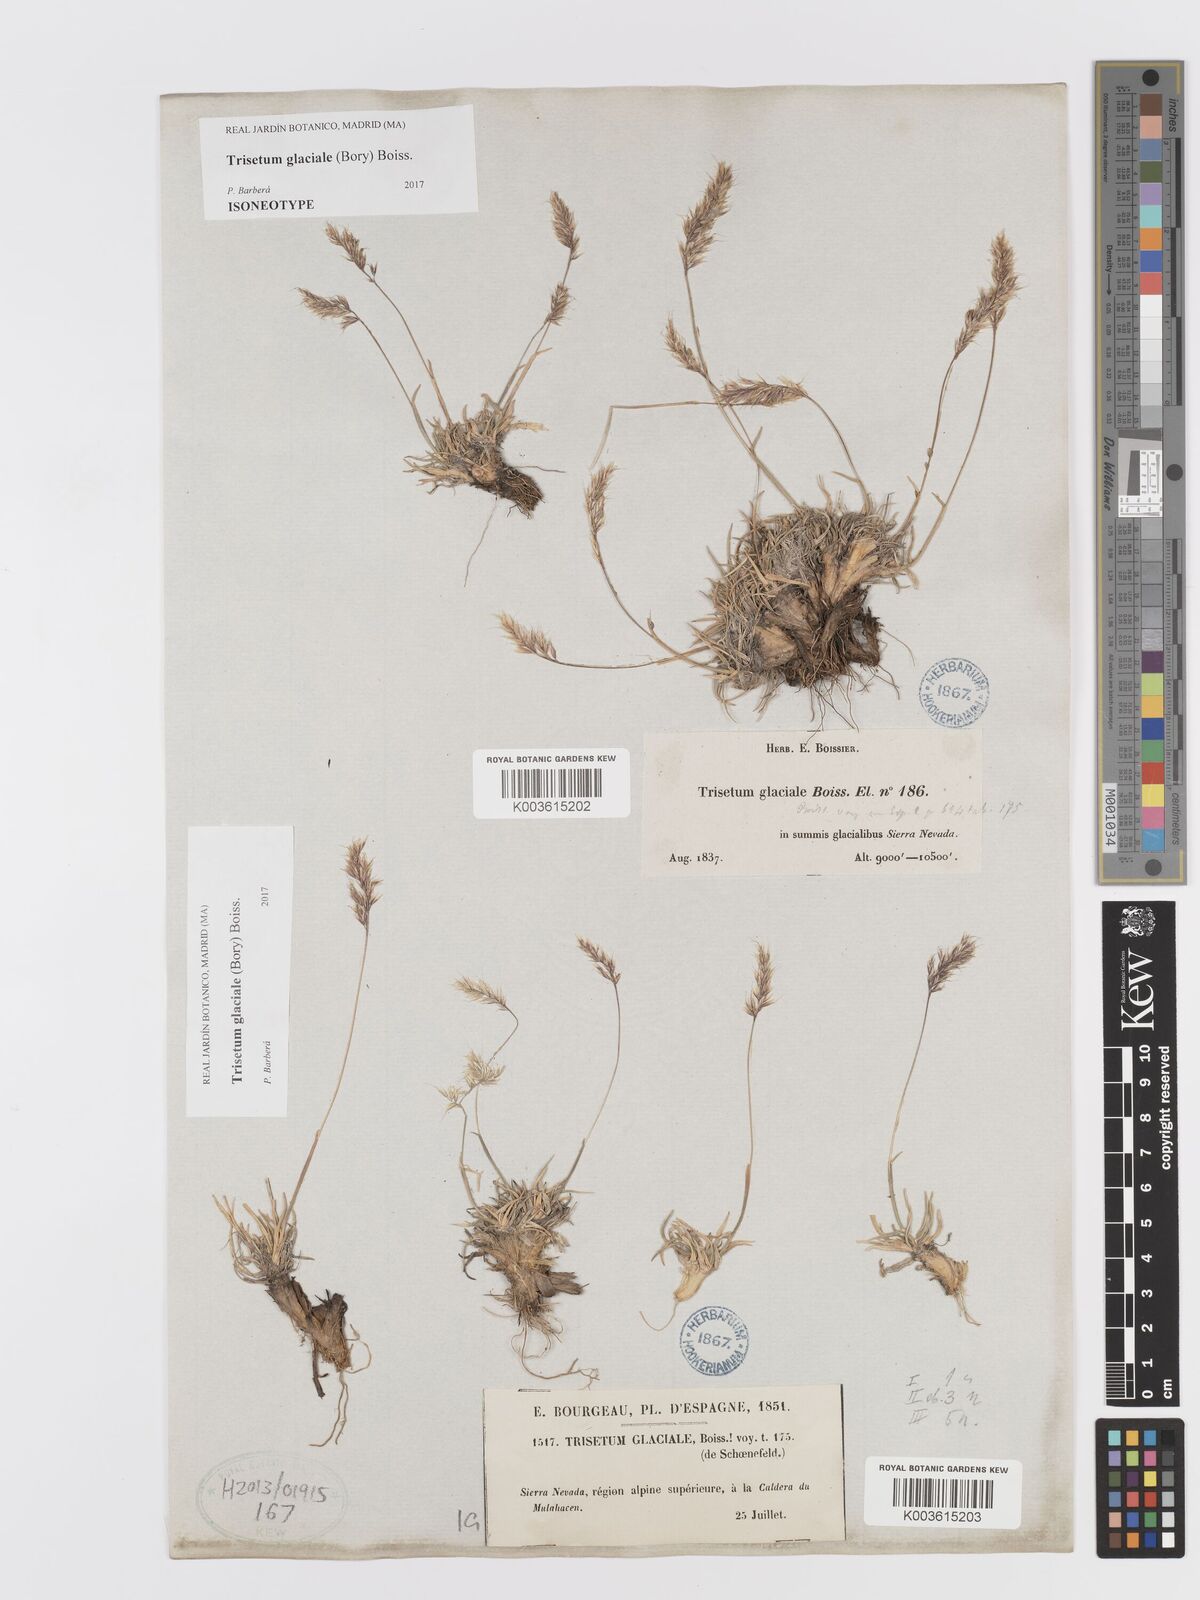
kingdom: Plantae
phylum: Tracheophyta
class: Liliopsida
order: Poales
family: Poaceae
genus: Acrospelion
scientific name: Acrospelion glaciale
